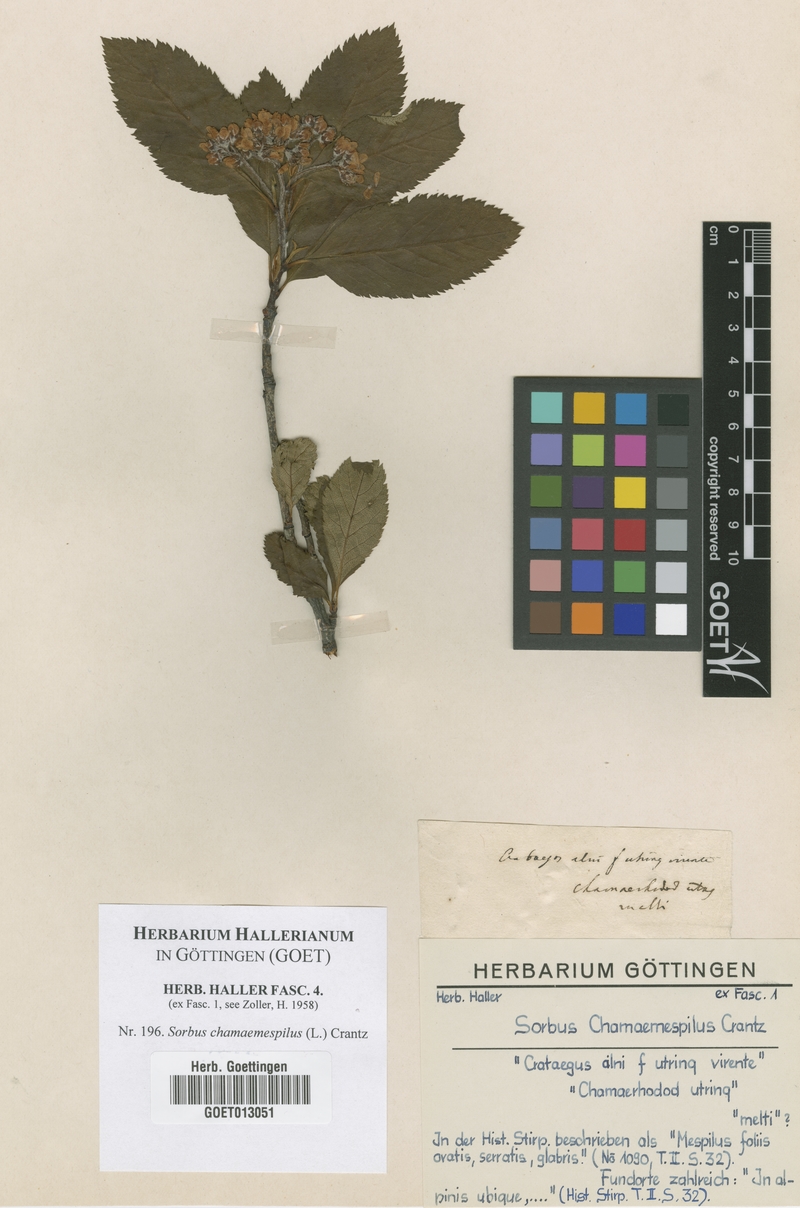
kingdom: Plantae
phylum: Tracheophyta
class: Magnoliopsida
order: Rosales
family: Rosaceae
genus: Chamaemespilus
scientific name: Chamaemespilus alpina
